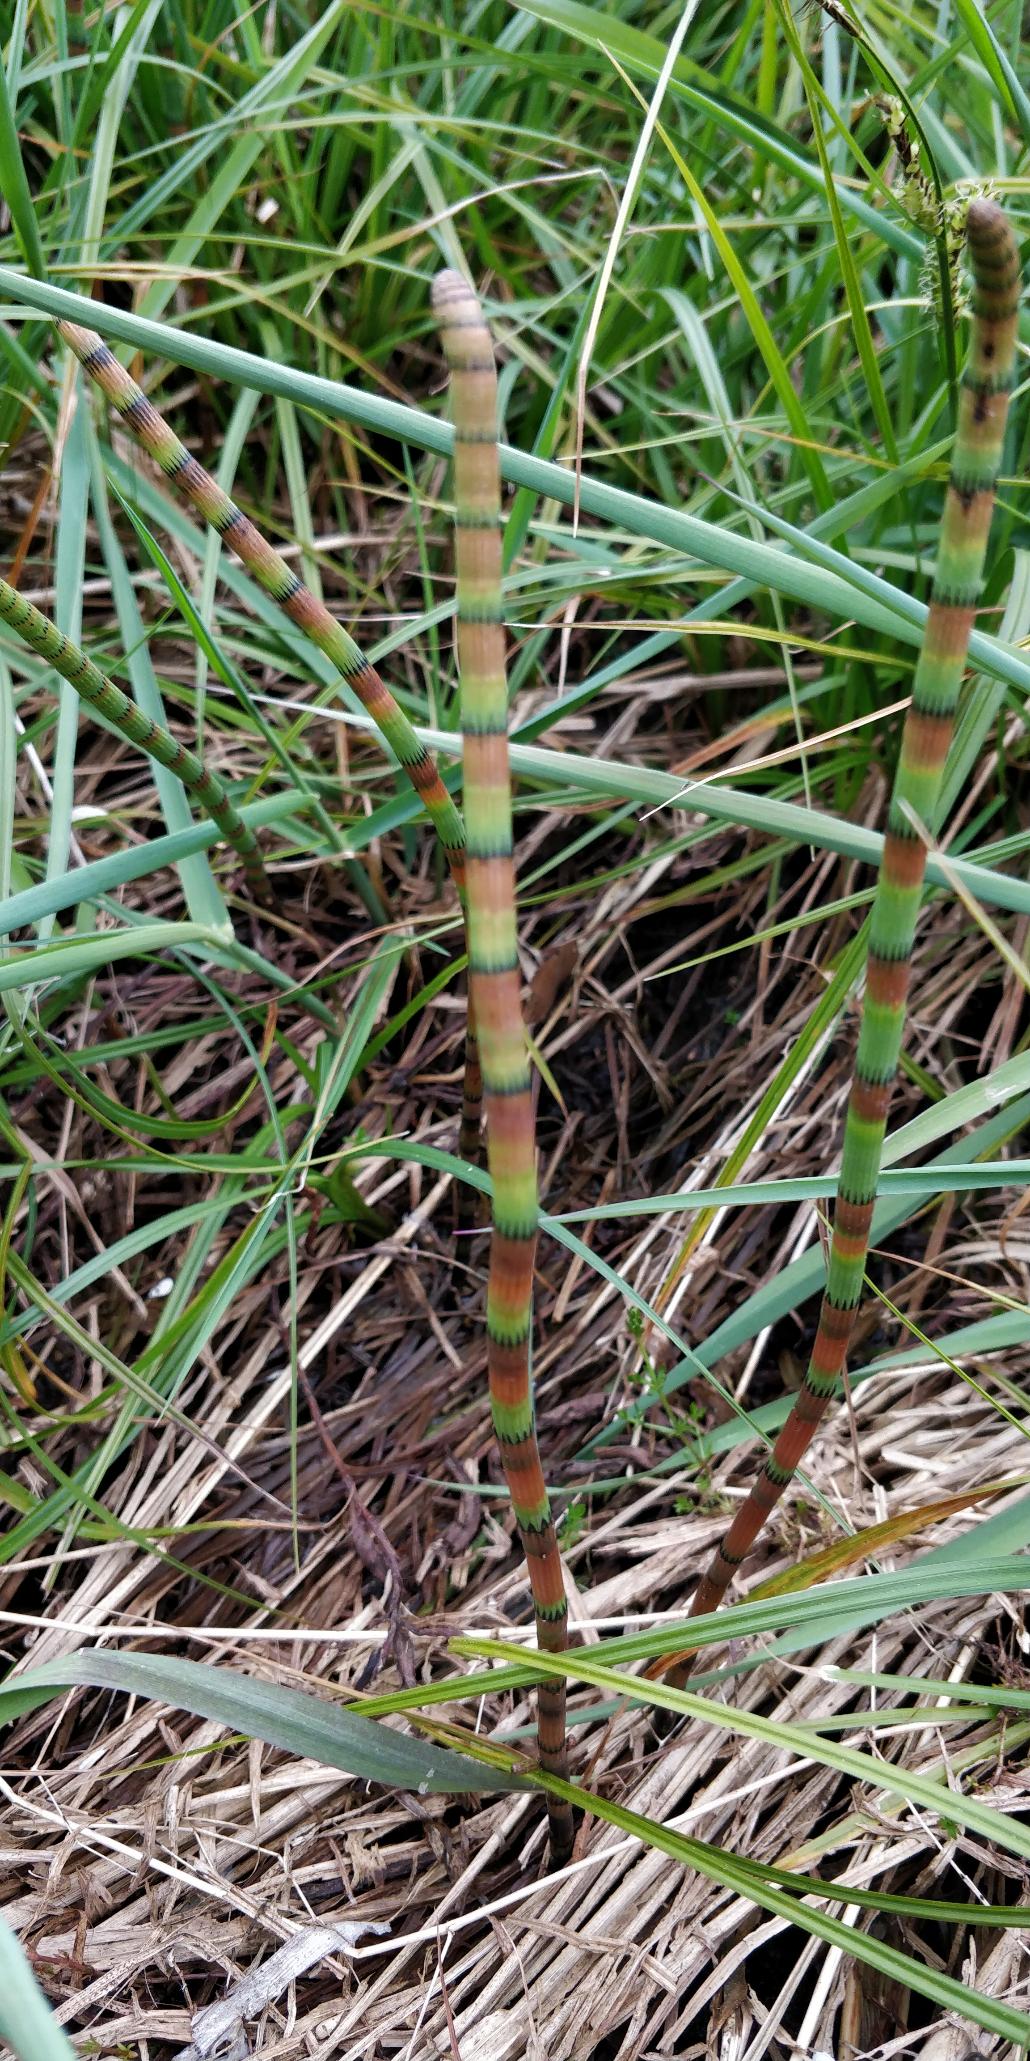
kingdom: Plantae
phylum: Tracheophyta
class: Polypodiopsida
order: Equisetales
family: Equisetaceae
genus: Equisetum
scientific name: Equisetum fluviatile
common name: Dynd-padderok
